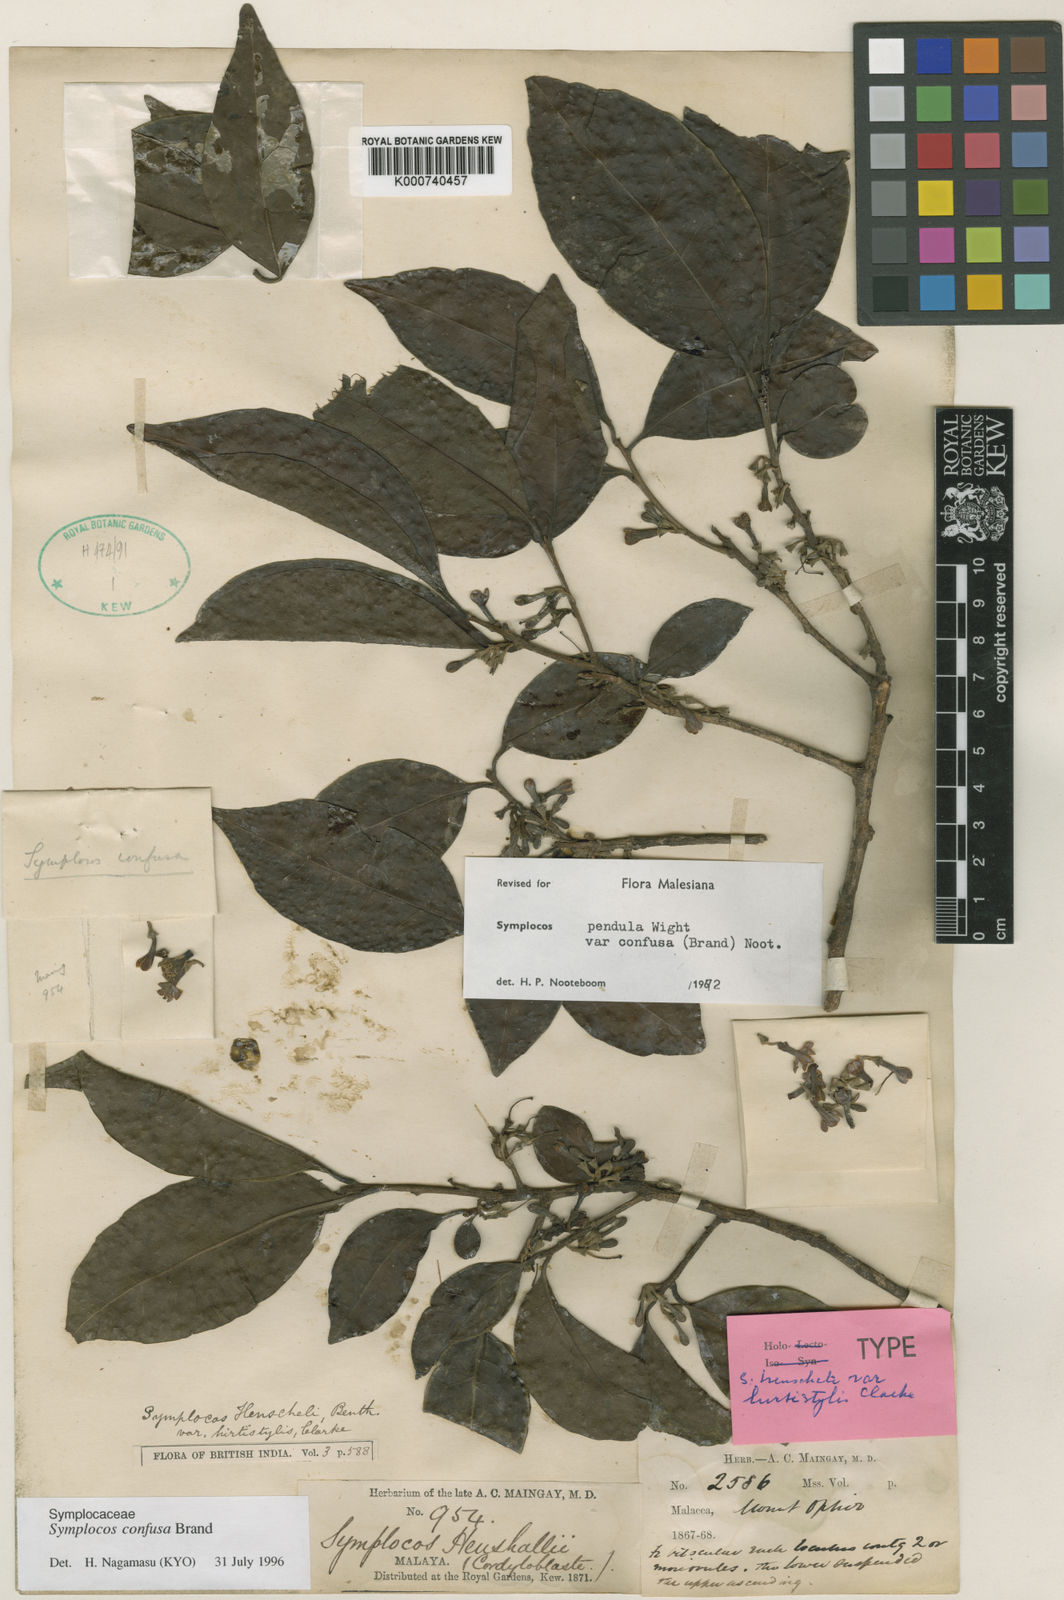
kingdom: Plantae
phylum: Tracheophyta
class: Magnoliopsida
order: Ericales
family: Symplocaceae
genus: Symplocos
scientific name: Symplocos pendula
